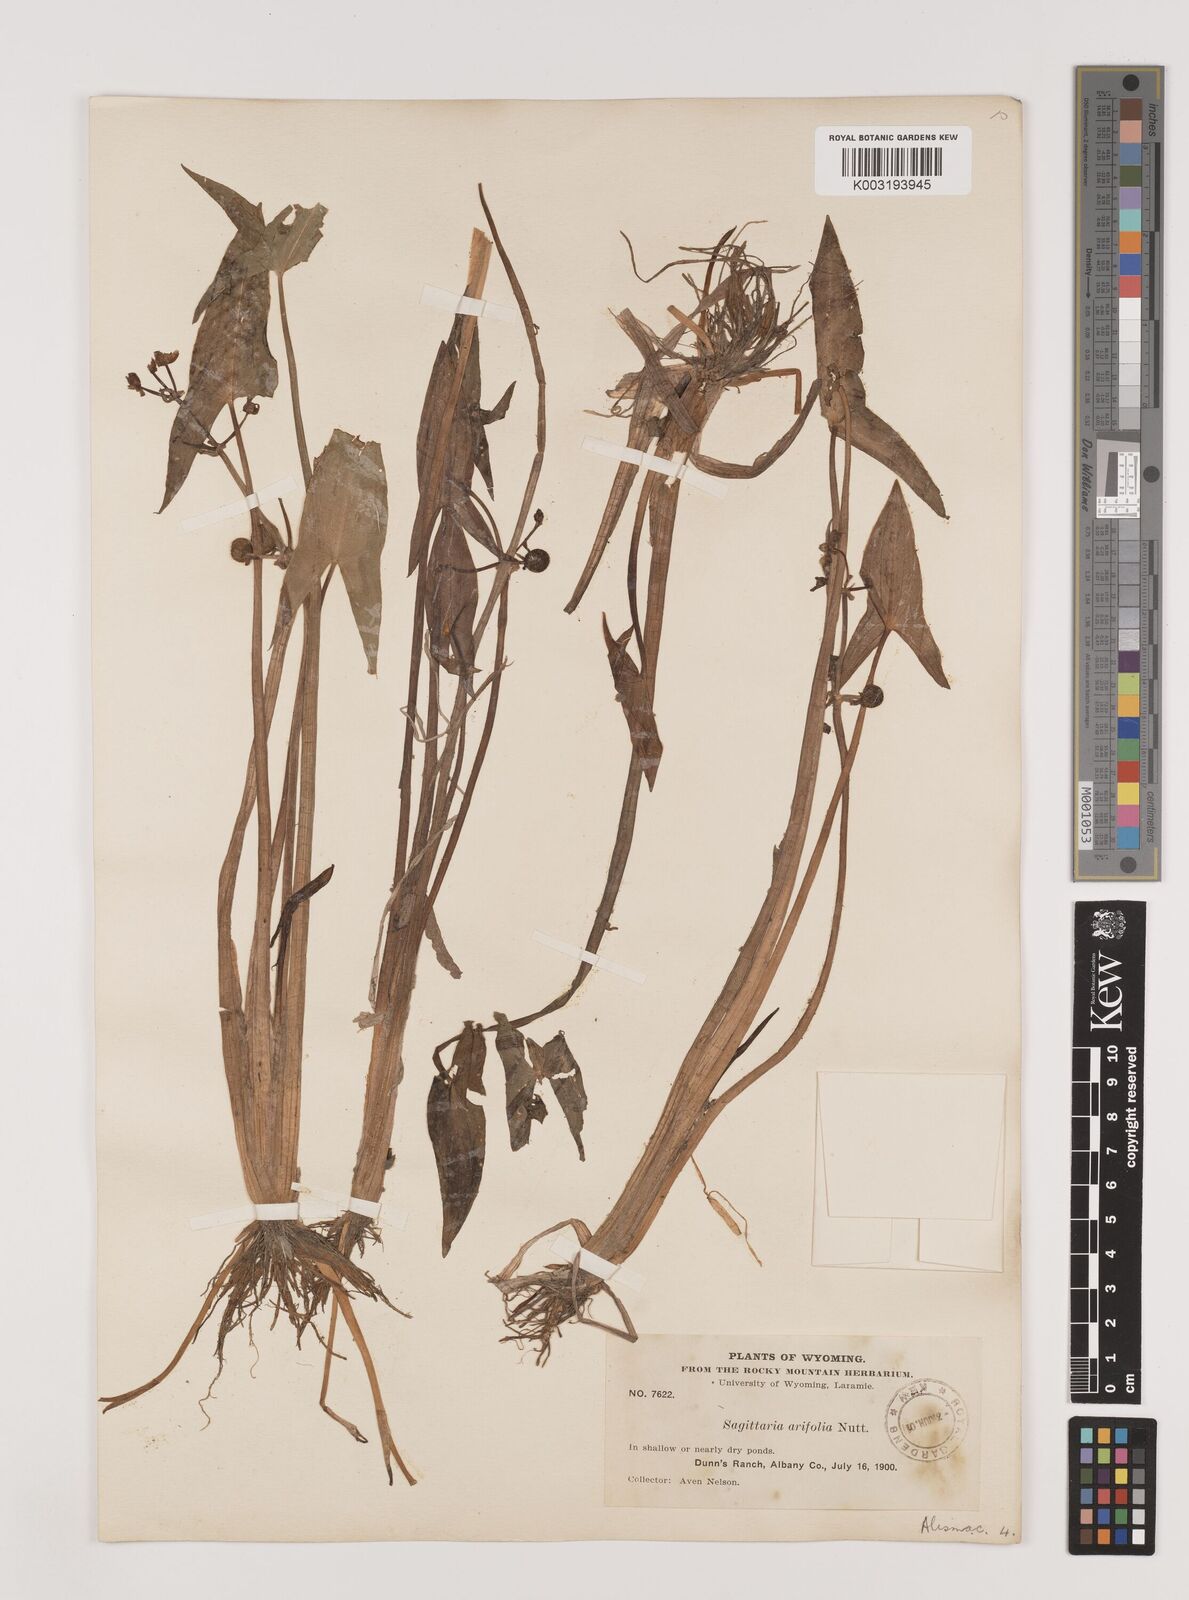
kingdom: Plantae
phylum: Tracheophyta
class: Liliopsida
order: Alismatales
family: Alismataceae
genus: Sagittaria
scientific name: Sagittaria cuneata
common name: Northern arrowhead
